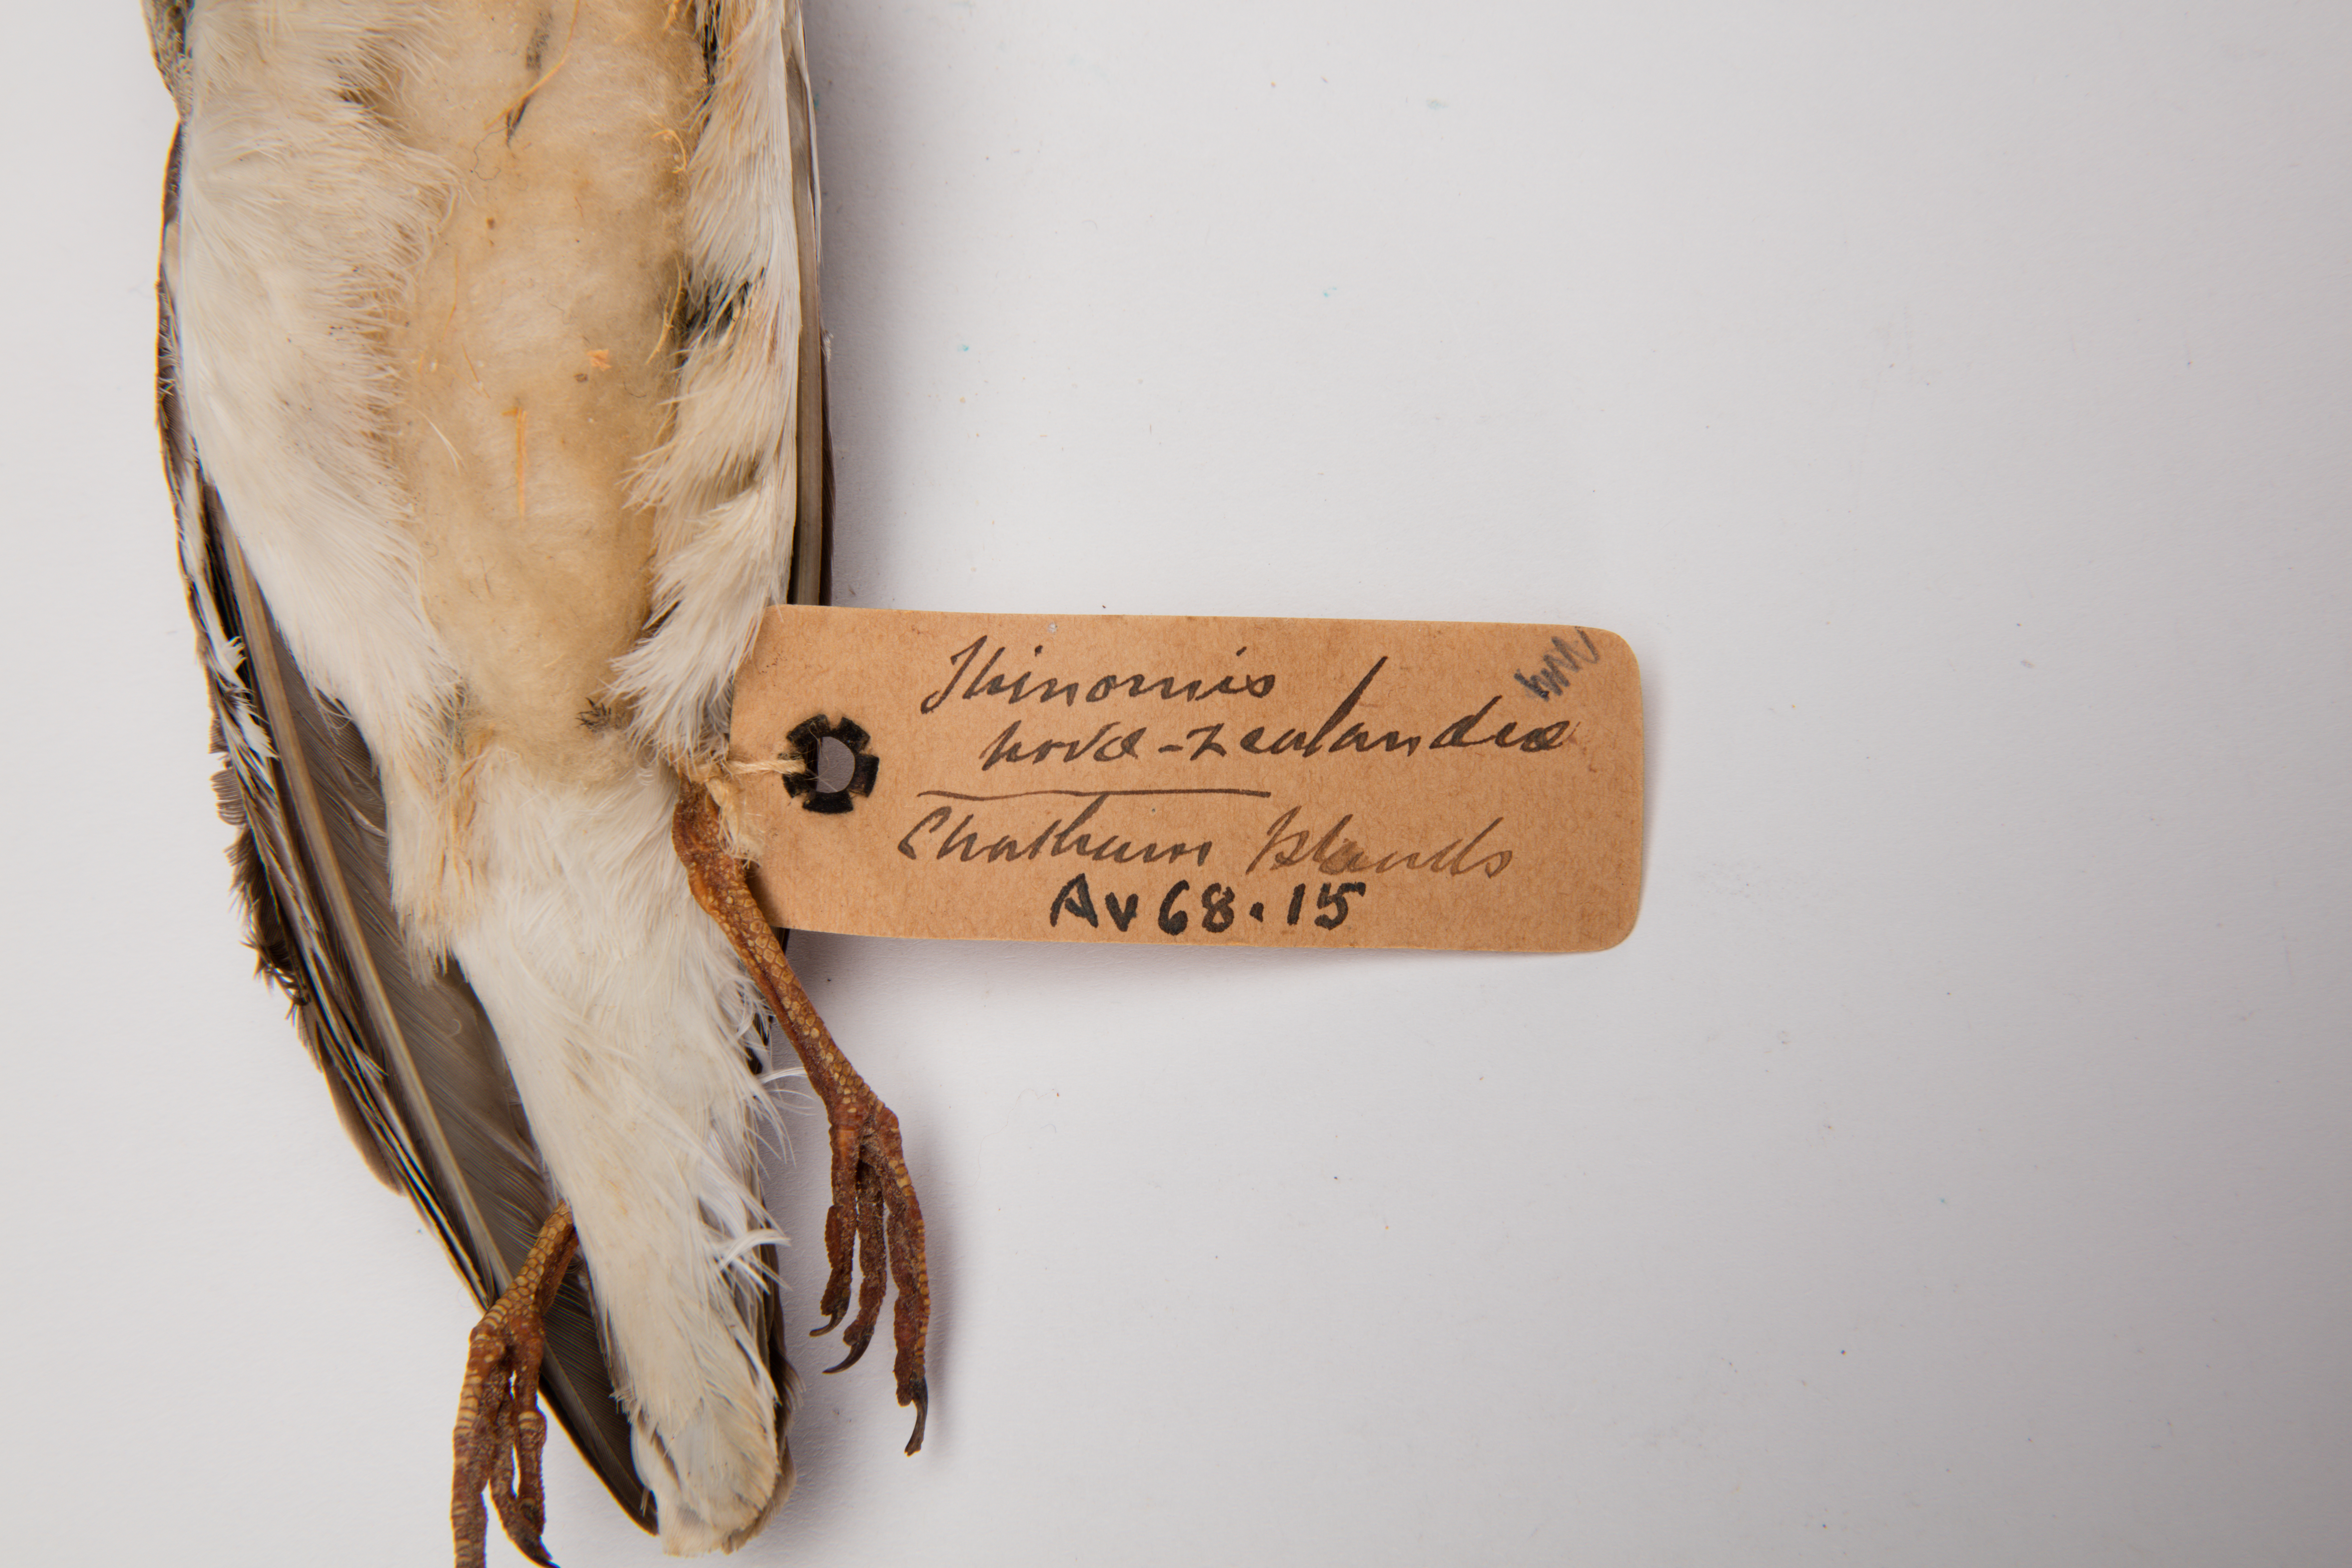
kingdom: Animalia
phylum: Chordata
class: Aves
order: Charadriiformes
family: Charadriidae
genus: Thinornis
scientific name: Thinornis novaeseelandiae
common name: Shore dotterel
